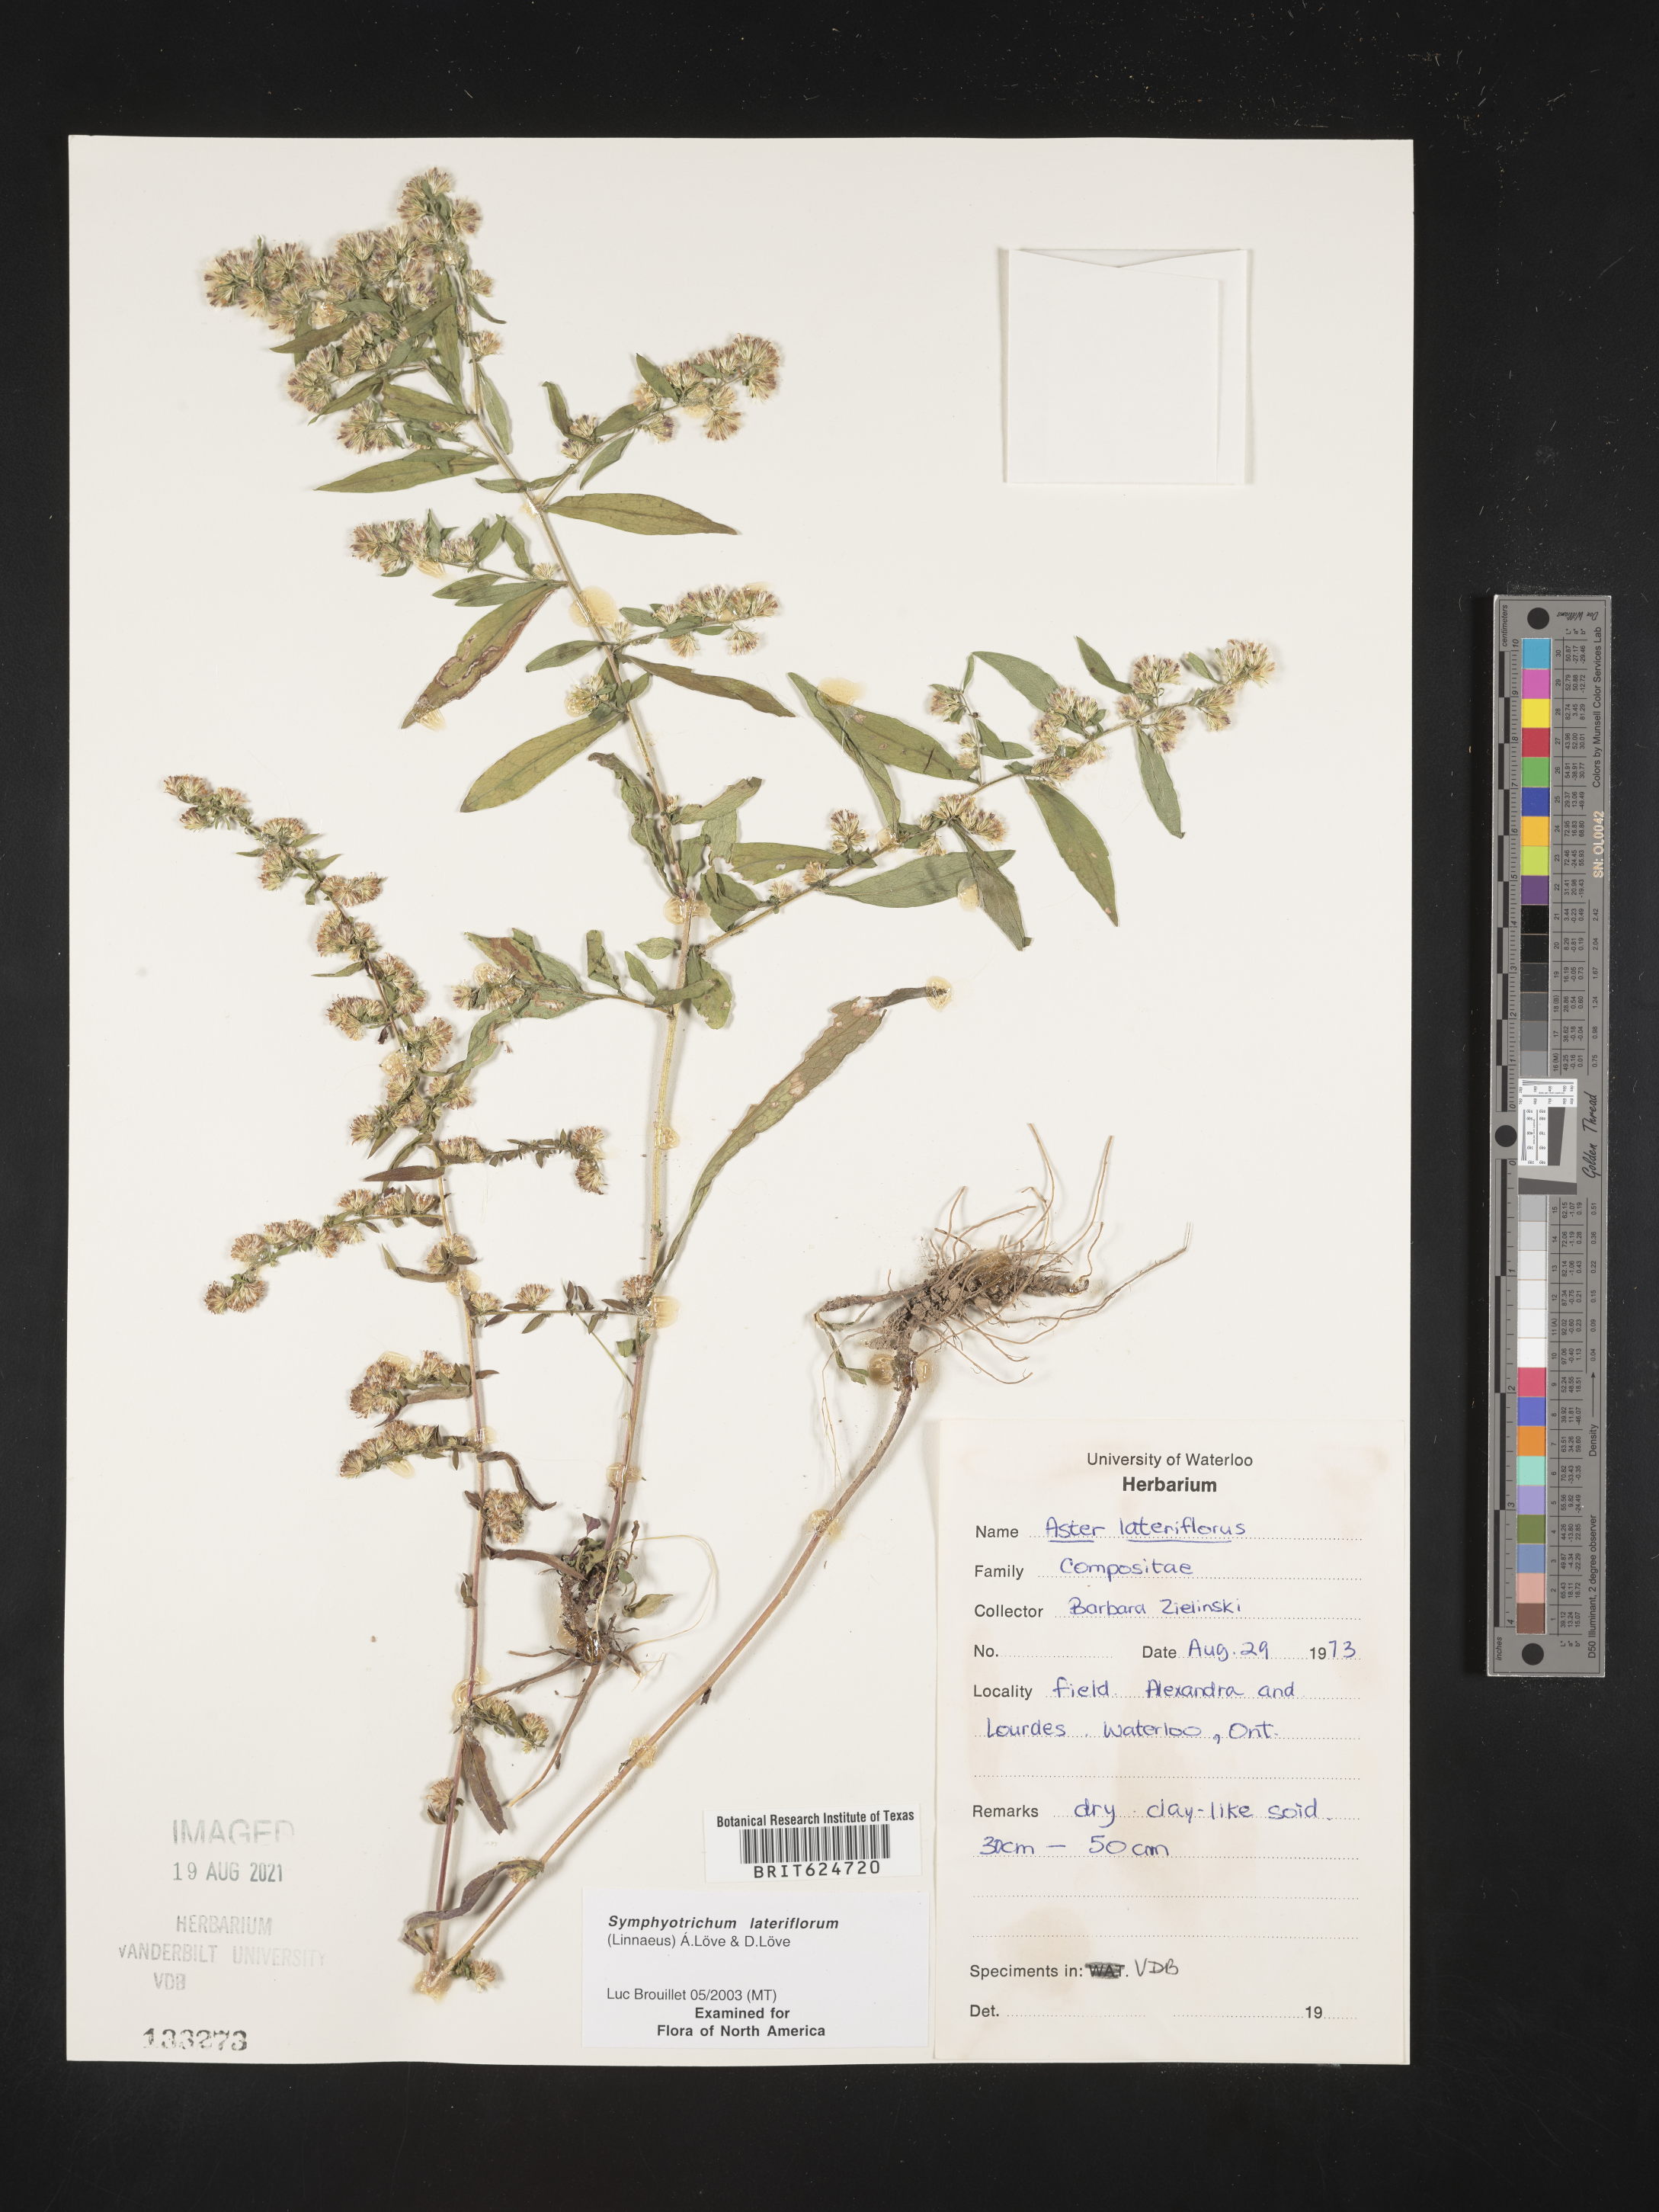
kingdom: Plantae
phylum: Tracheophyta
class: Magnoliopsida
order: Asterales
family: Asteraceae
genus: Symphyotrichum
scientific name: Symphyotrichum lateriflorum
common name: Calico aster
